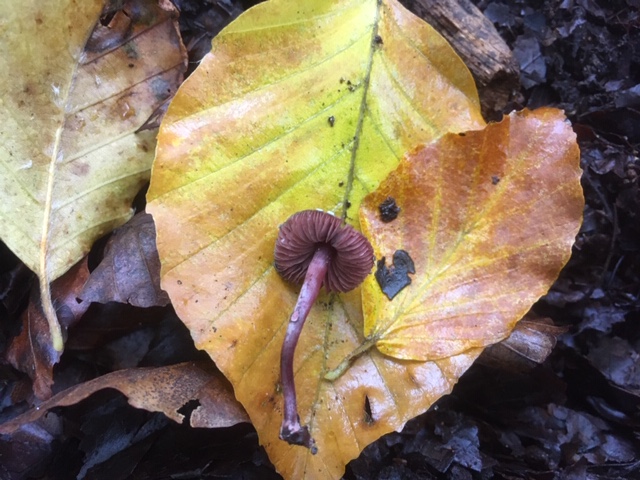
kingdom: Fungi
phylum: Basidiomycota
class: Agaricomycetes
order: Agaricales
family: Agaricaceae
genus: Melanophyllum
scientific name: Melanophyllum haematospermum
